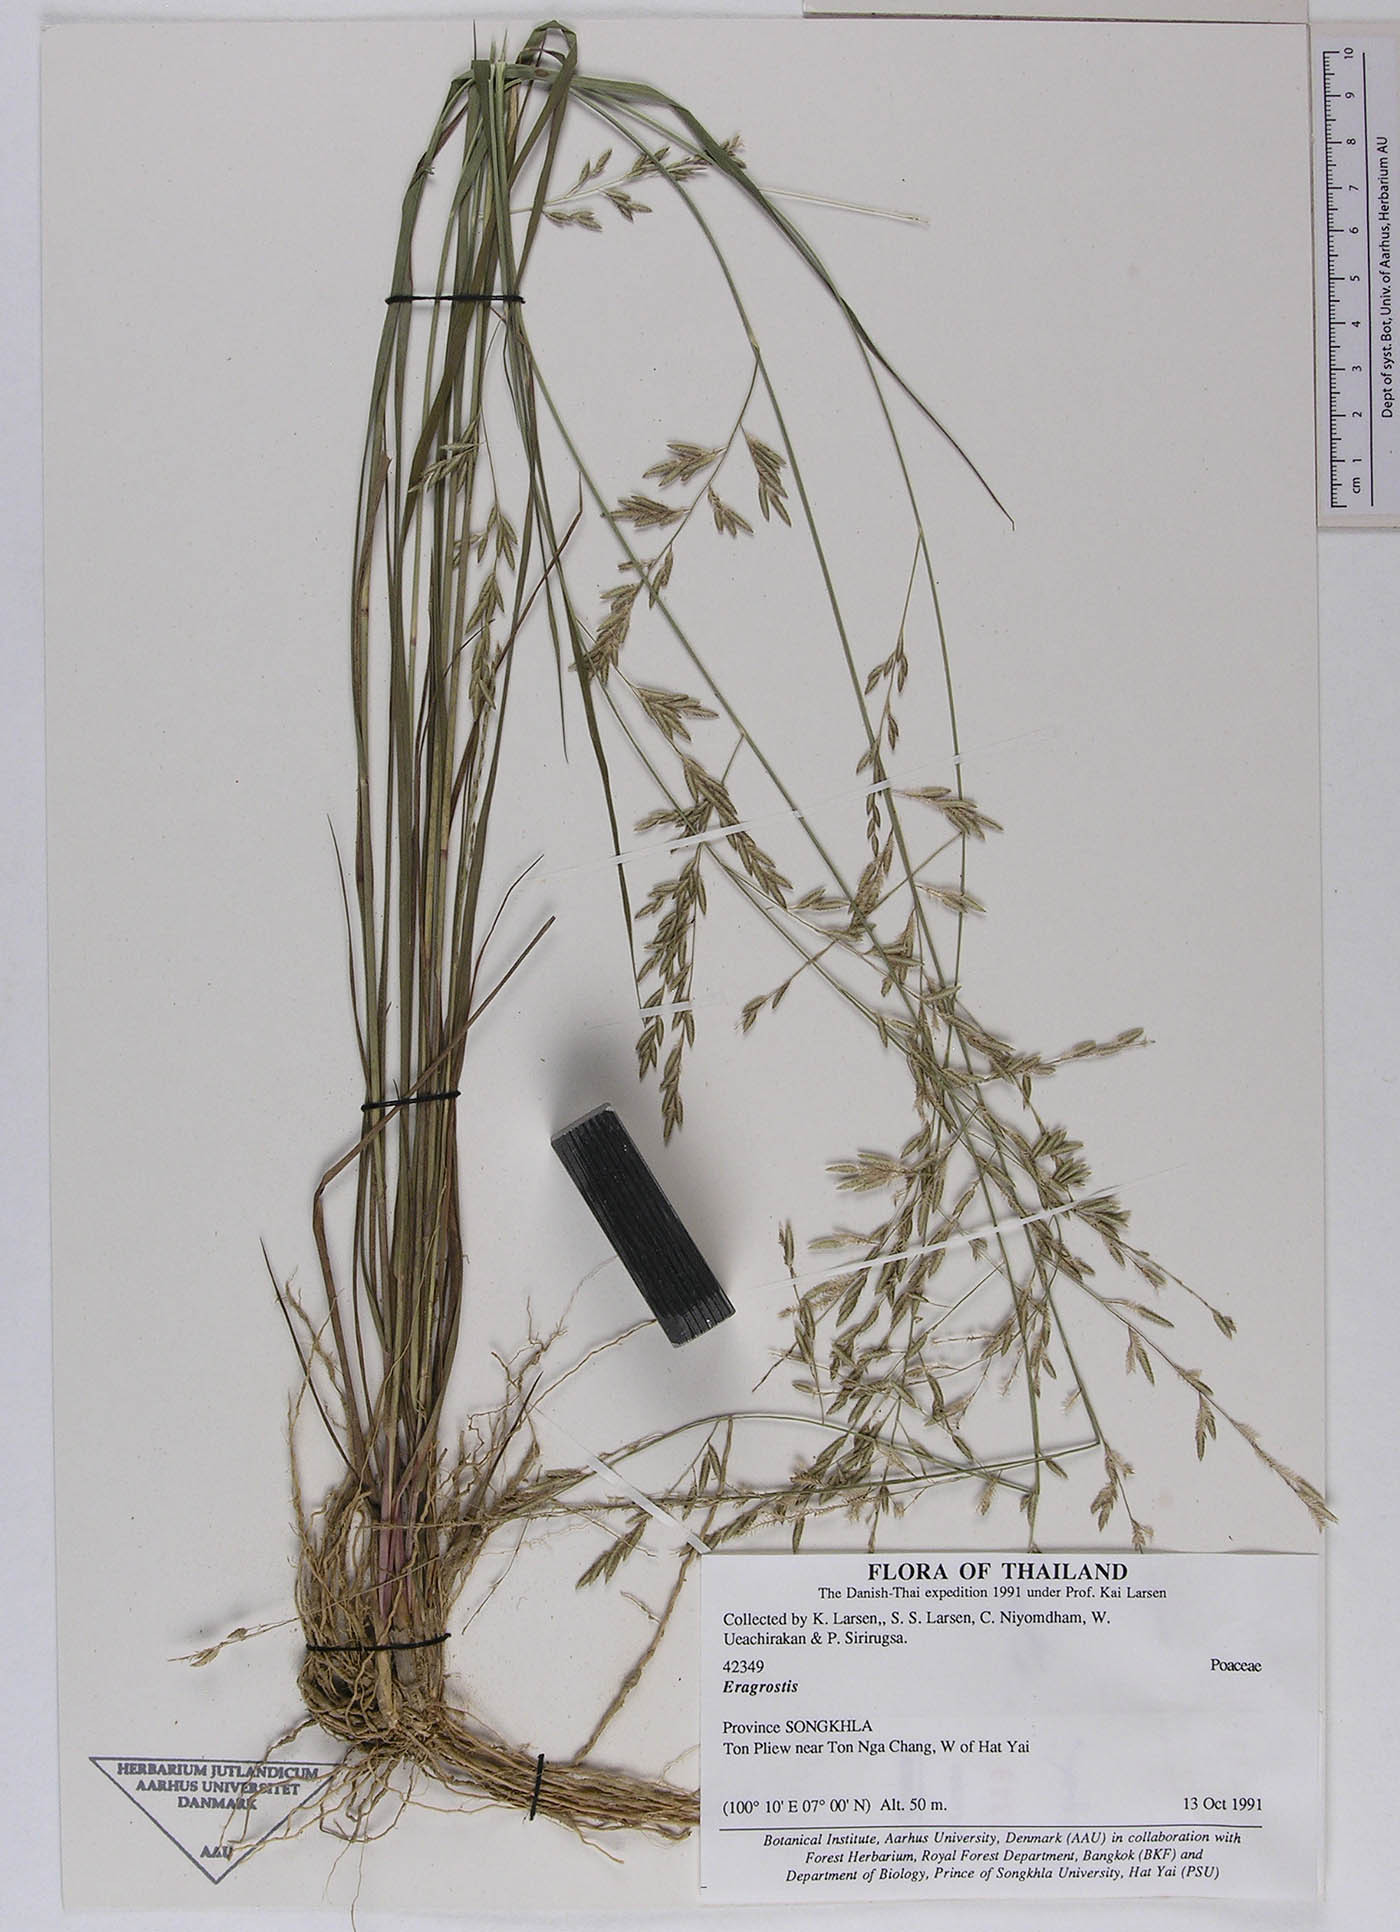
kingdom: Plantae
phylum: Tracheophyta
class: Liliopsida
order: Poales
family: Poaceae
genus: Eragrostis
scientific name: Eragrostis
